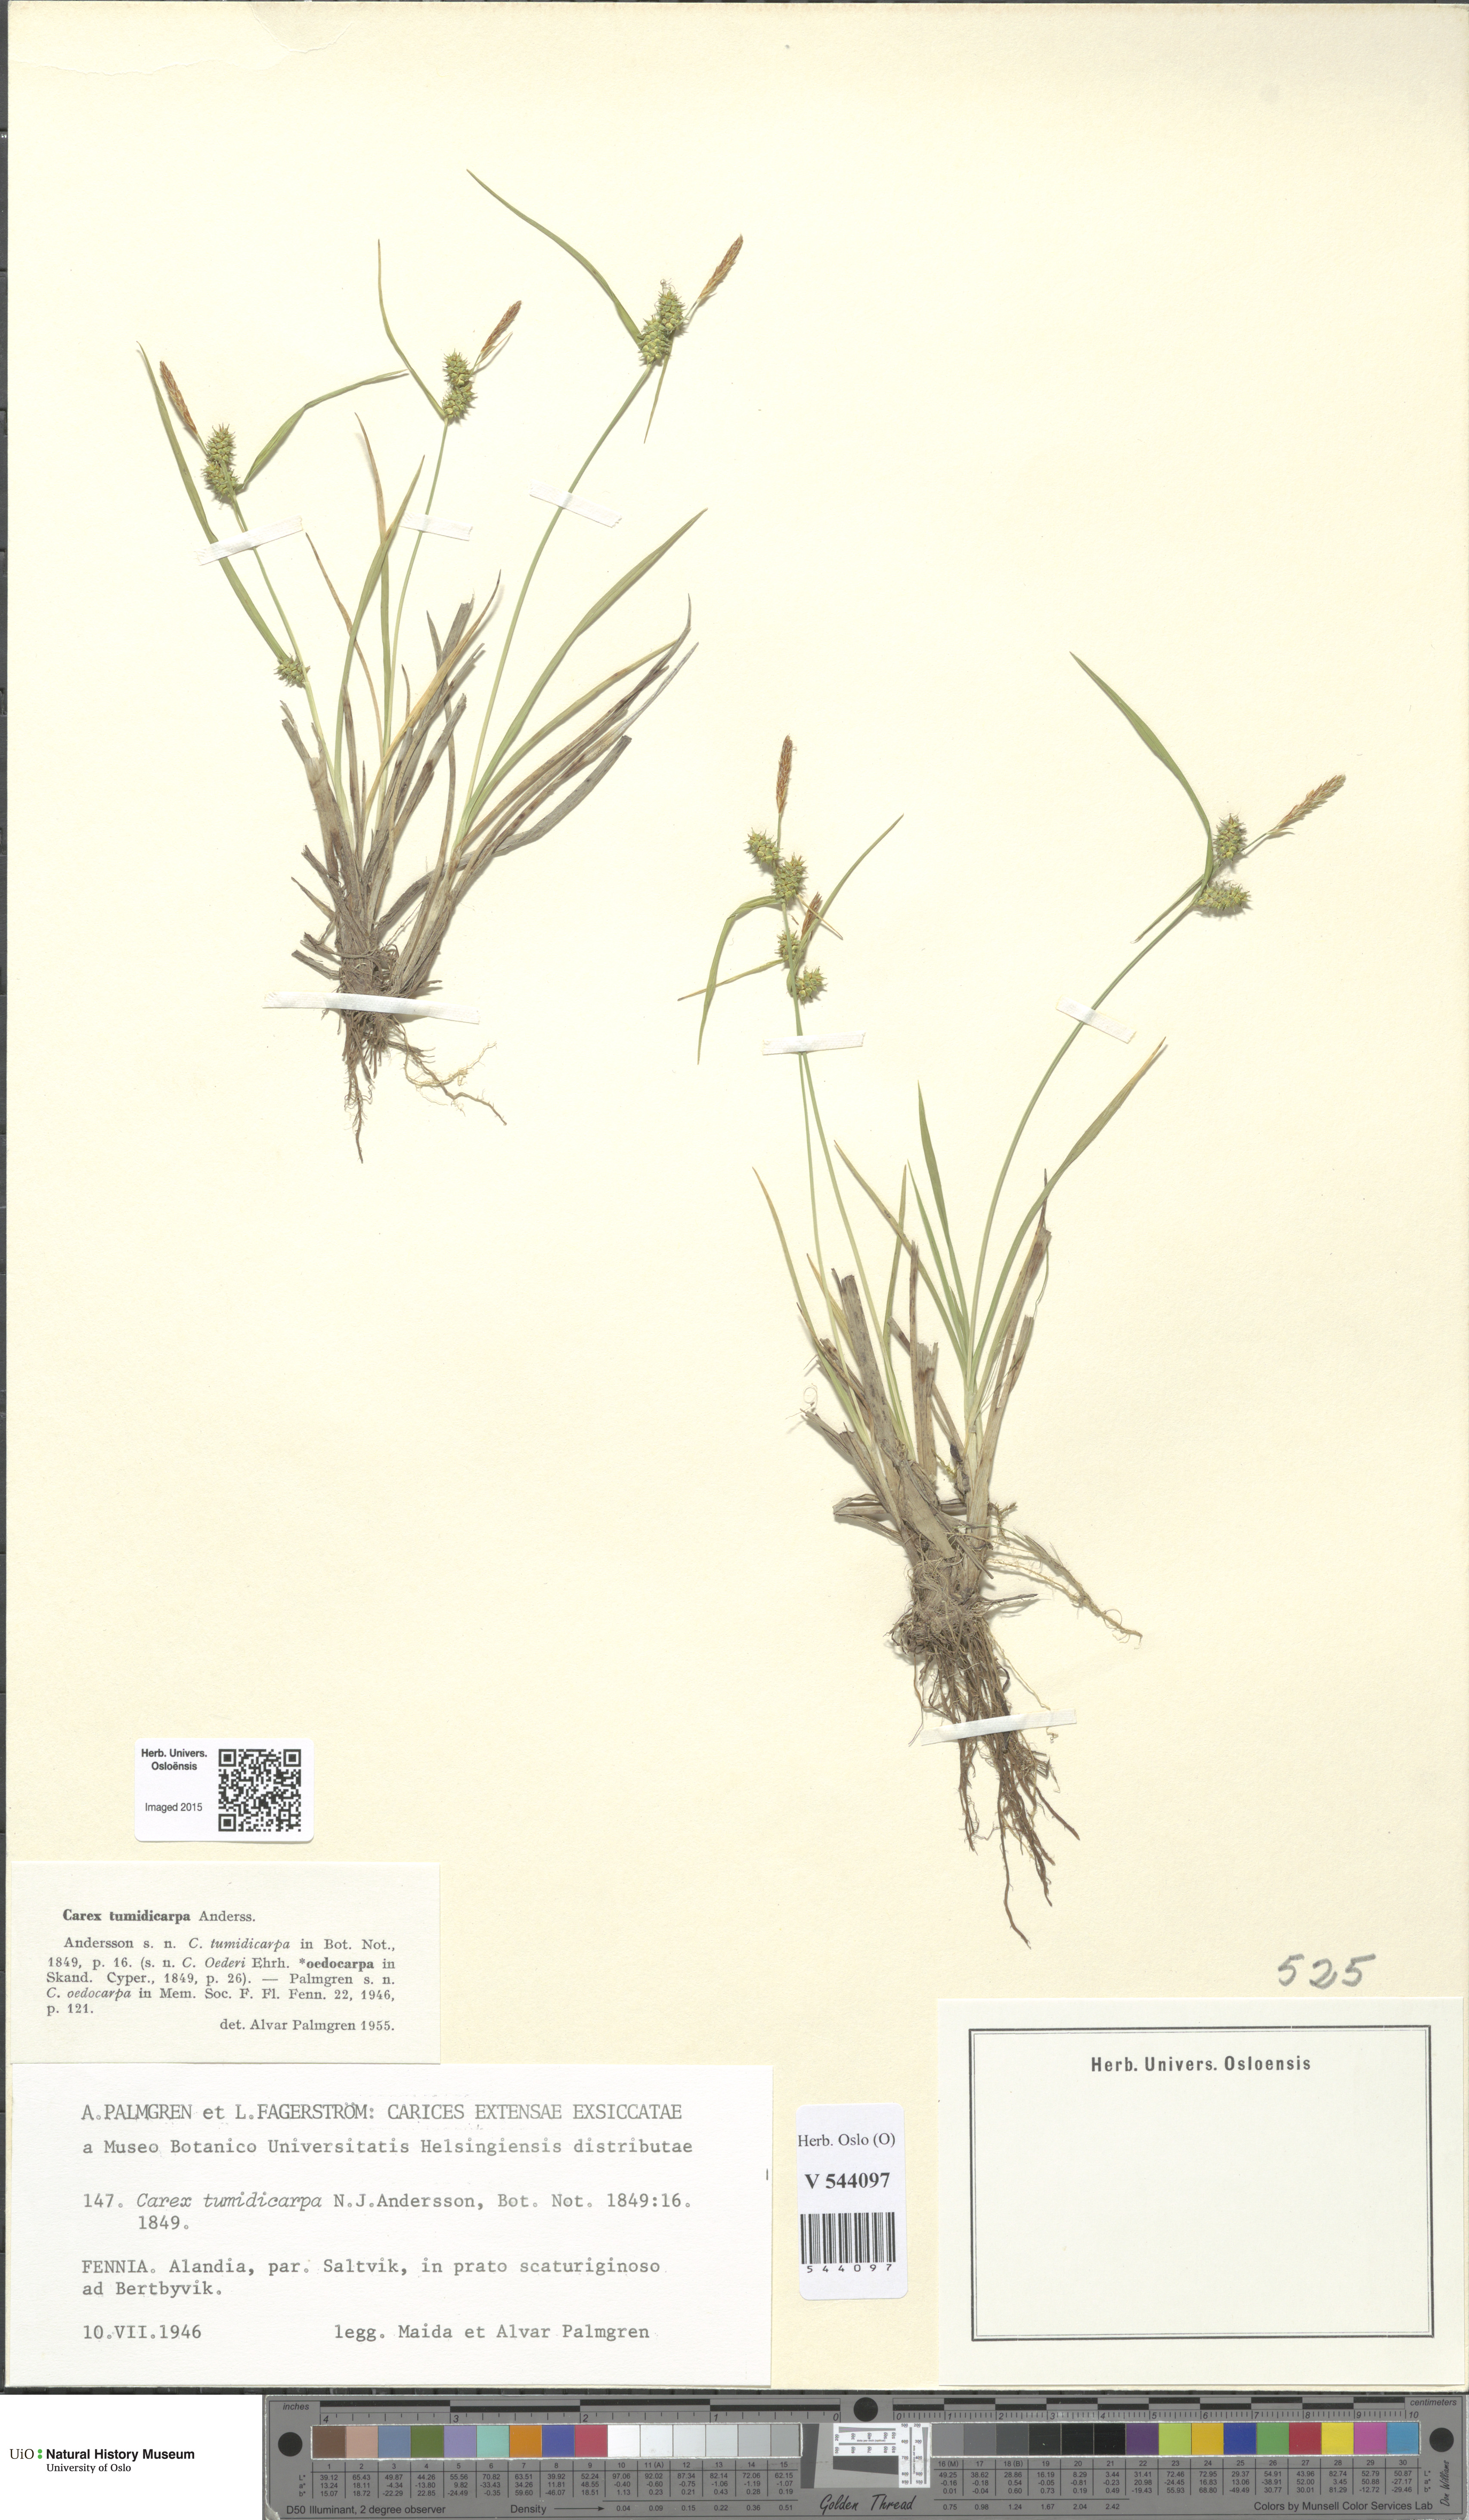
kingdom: Plantae
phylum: Tracheophyta
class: Liliopsida
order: Poales
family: Cyperaceae
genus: Carex
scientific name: Carex demissa
